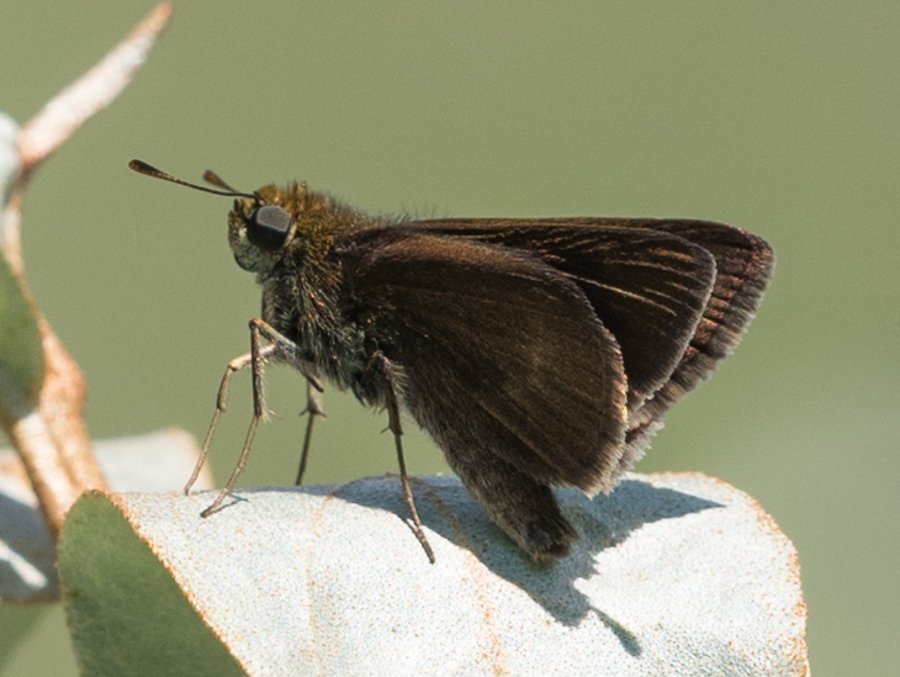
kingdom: Animalia
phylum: Arthropoda
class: Insecta
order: Lepidoptera
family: Hesperiidae
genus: Euphyes
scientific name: Euphyes vestris
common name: Dun Skipper
